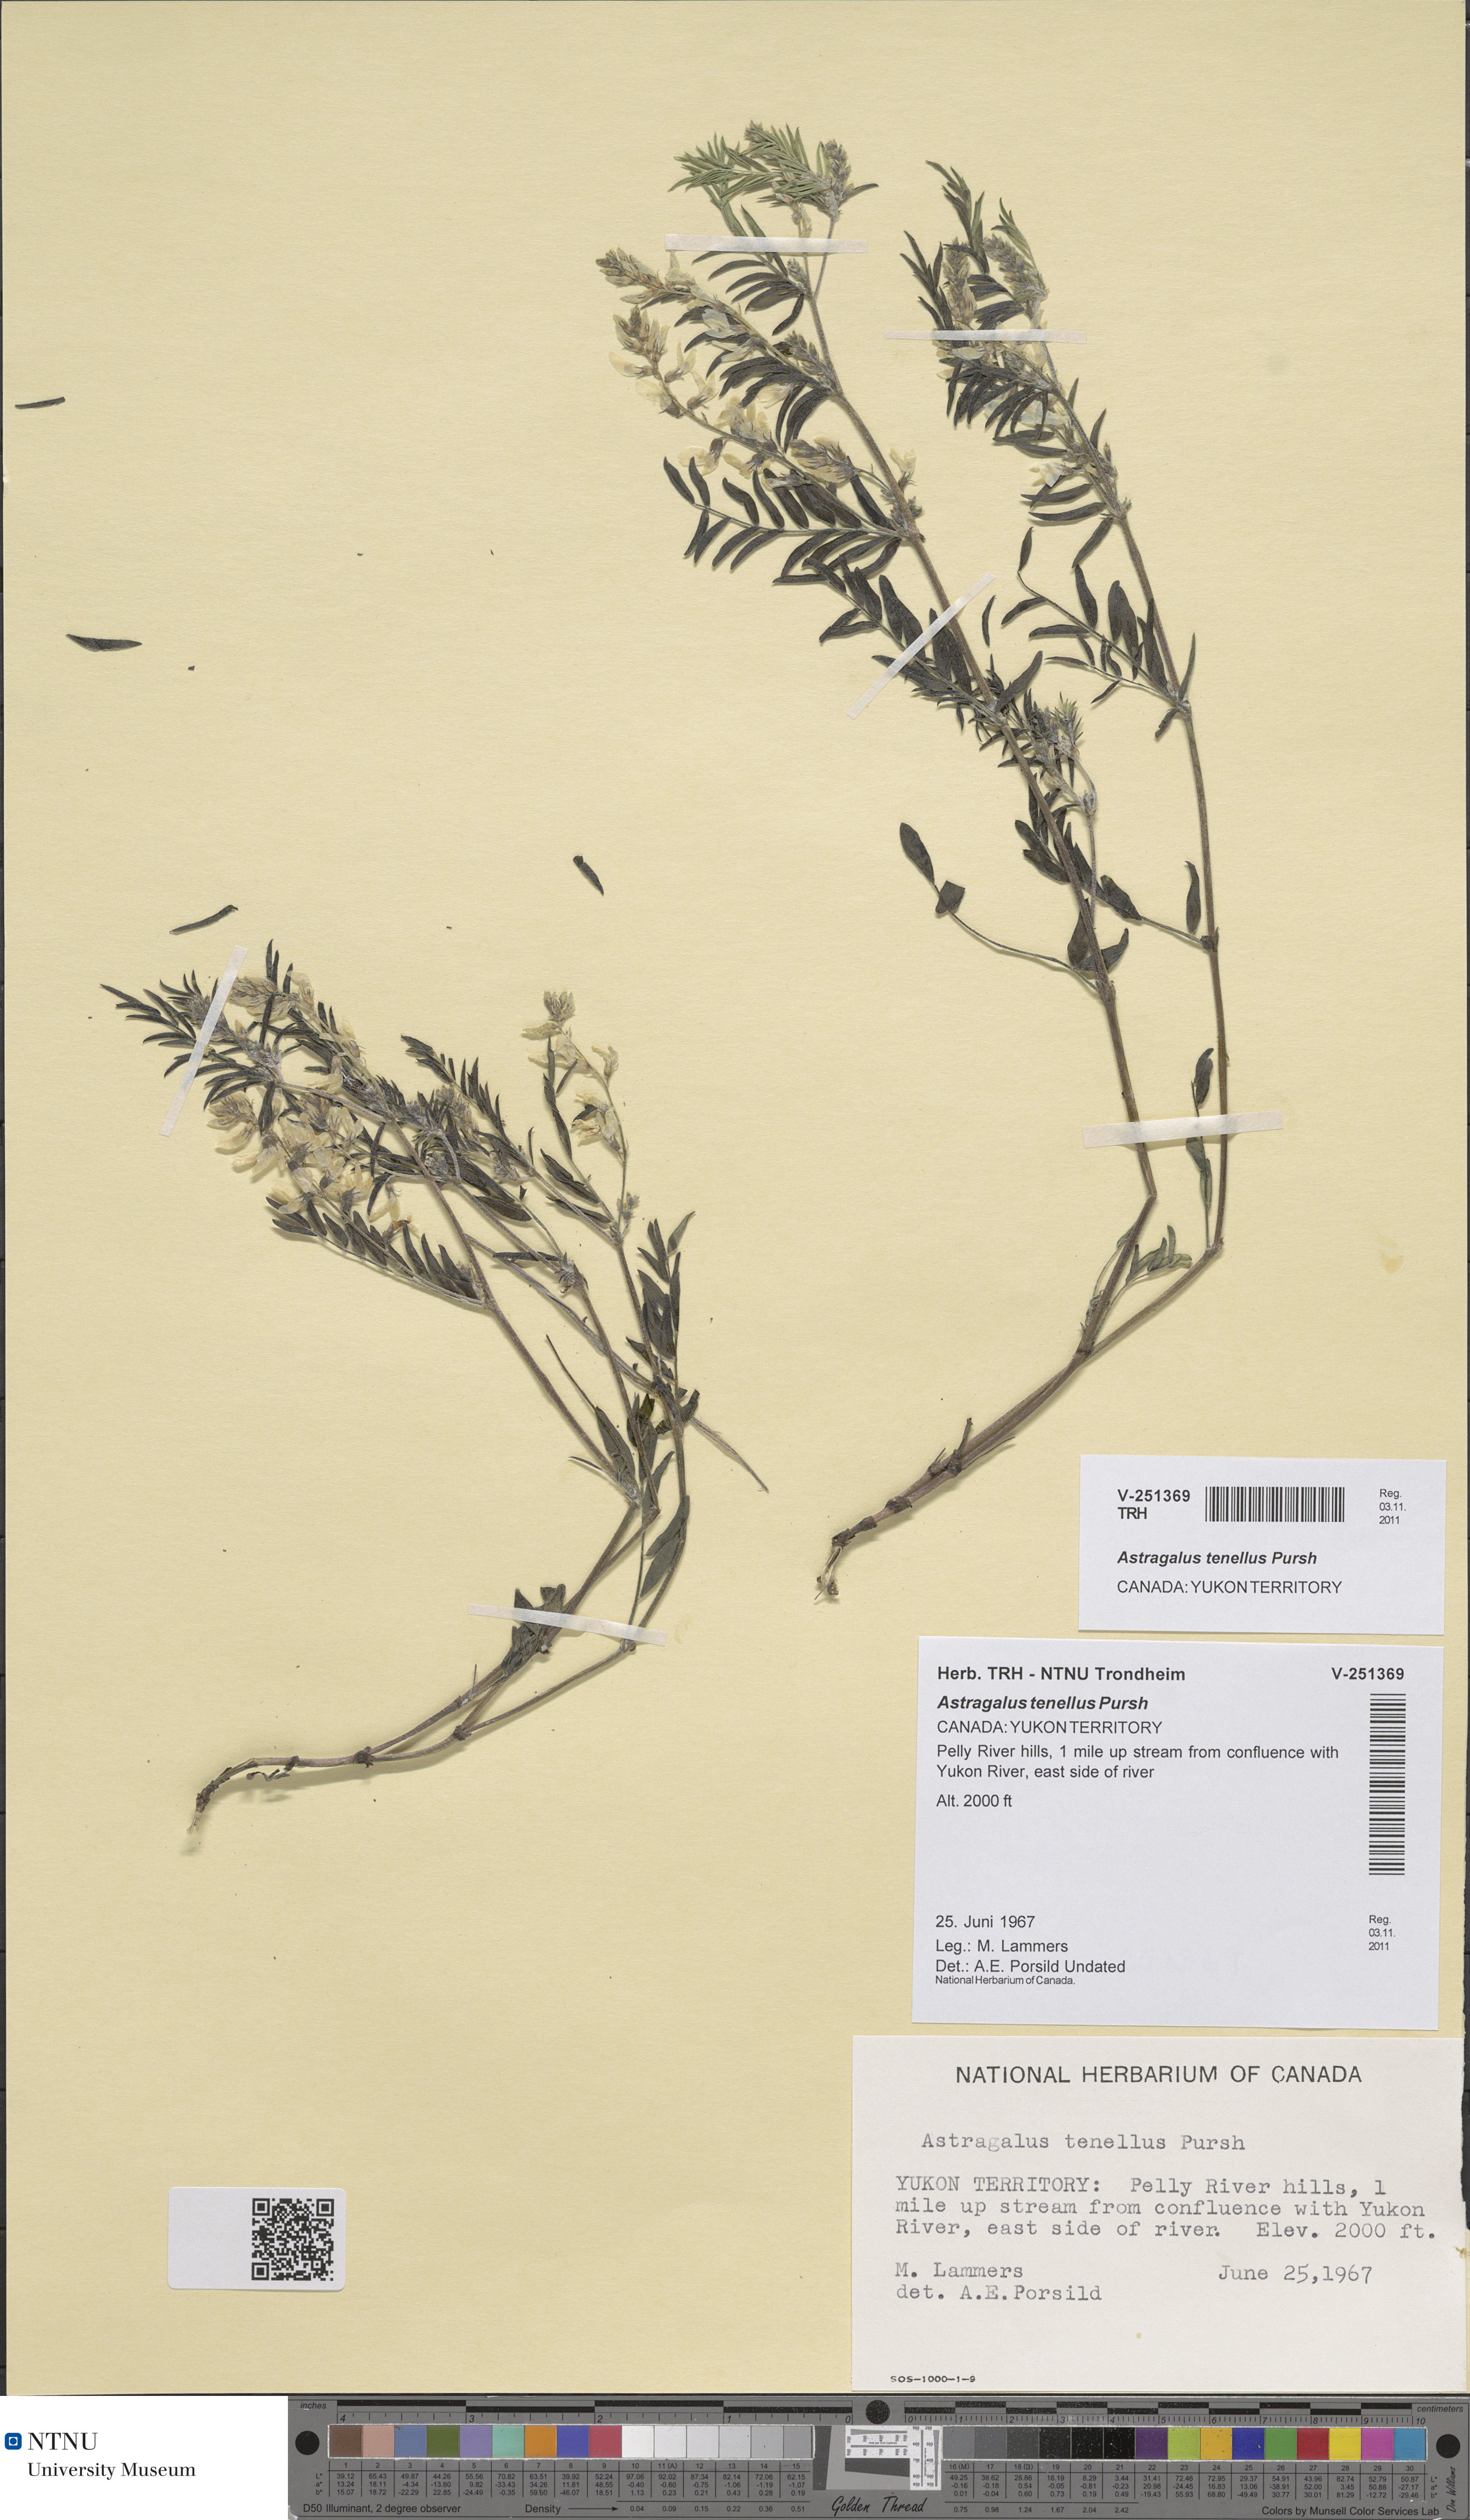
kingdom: Plantae
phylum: Tracheophyta
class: Magnoliopsida
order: Fabales
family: Fabaceae
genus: Astragalus
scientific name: Astragalus tenellus
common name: Pulse milk-vetch
